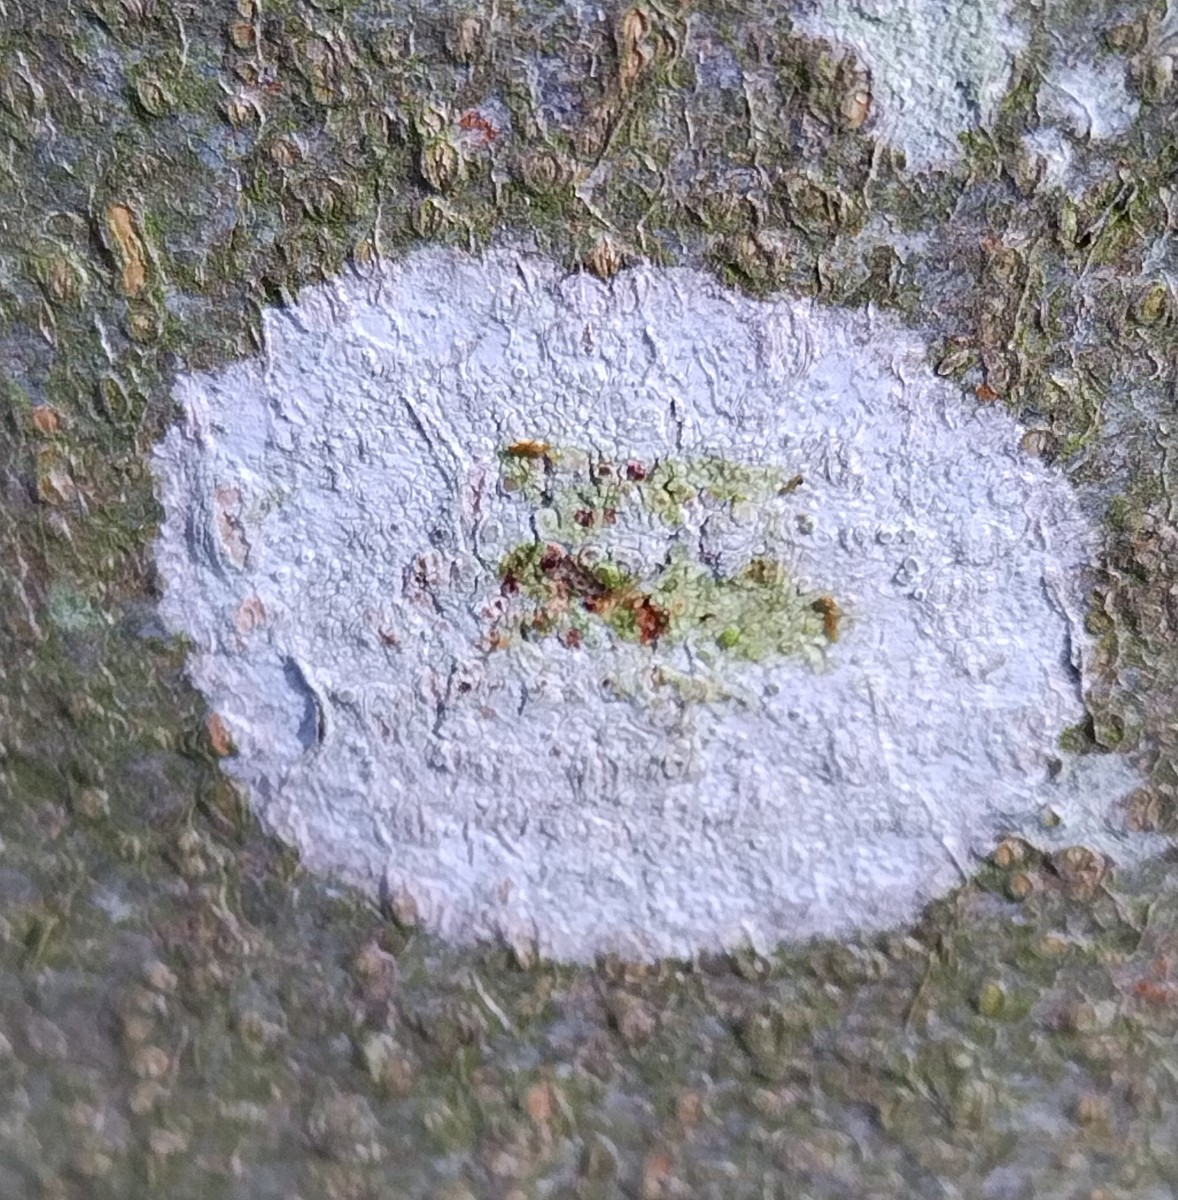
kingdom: Fungi
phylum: Ascomycota
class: Lecanoromycetes
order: Ostropales
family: Phlyctidaceae
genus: Phlyctis
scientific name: Phlyctis argena
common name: almindelig sølvlav
